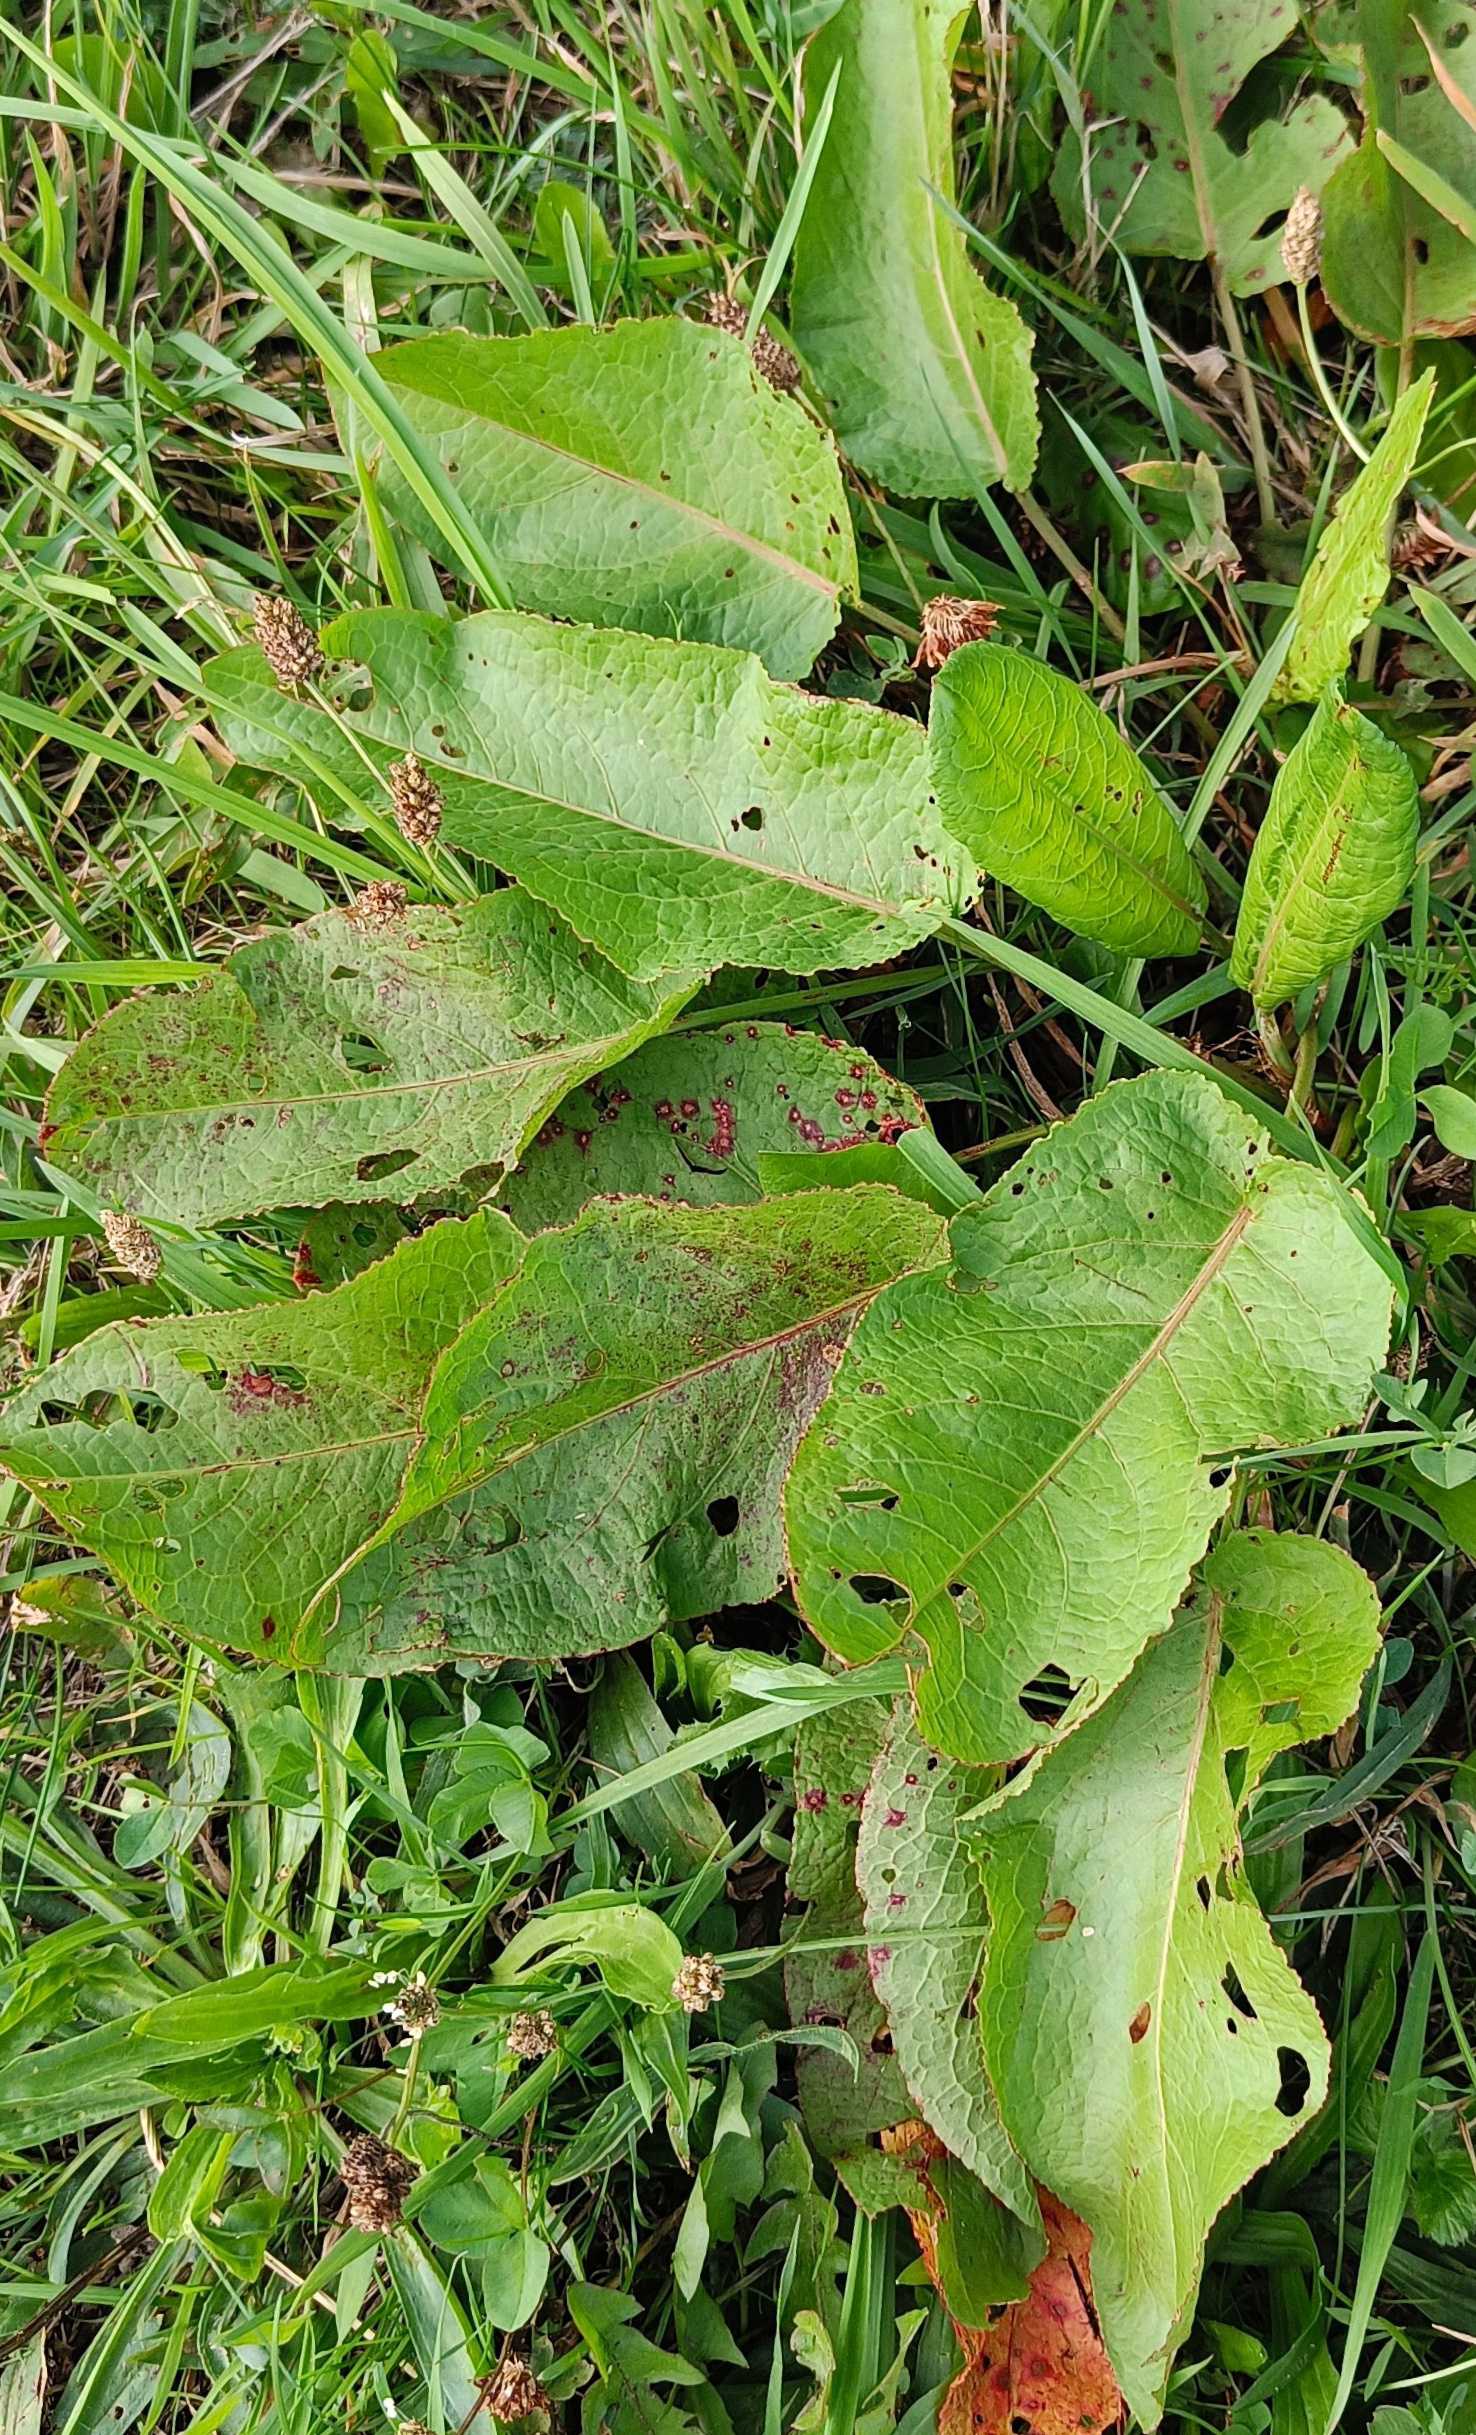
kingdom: Plantae
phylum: Tracheophyta
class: Magnoliopsida
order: Caryophyllales
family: Polygonaceae
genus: Rumex
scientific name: Rumex obtusifolius
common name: Butbladet skræppe
